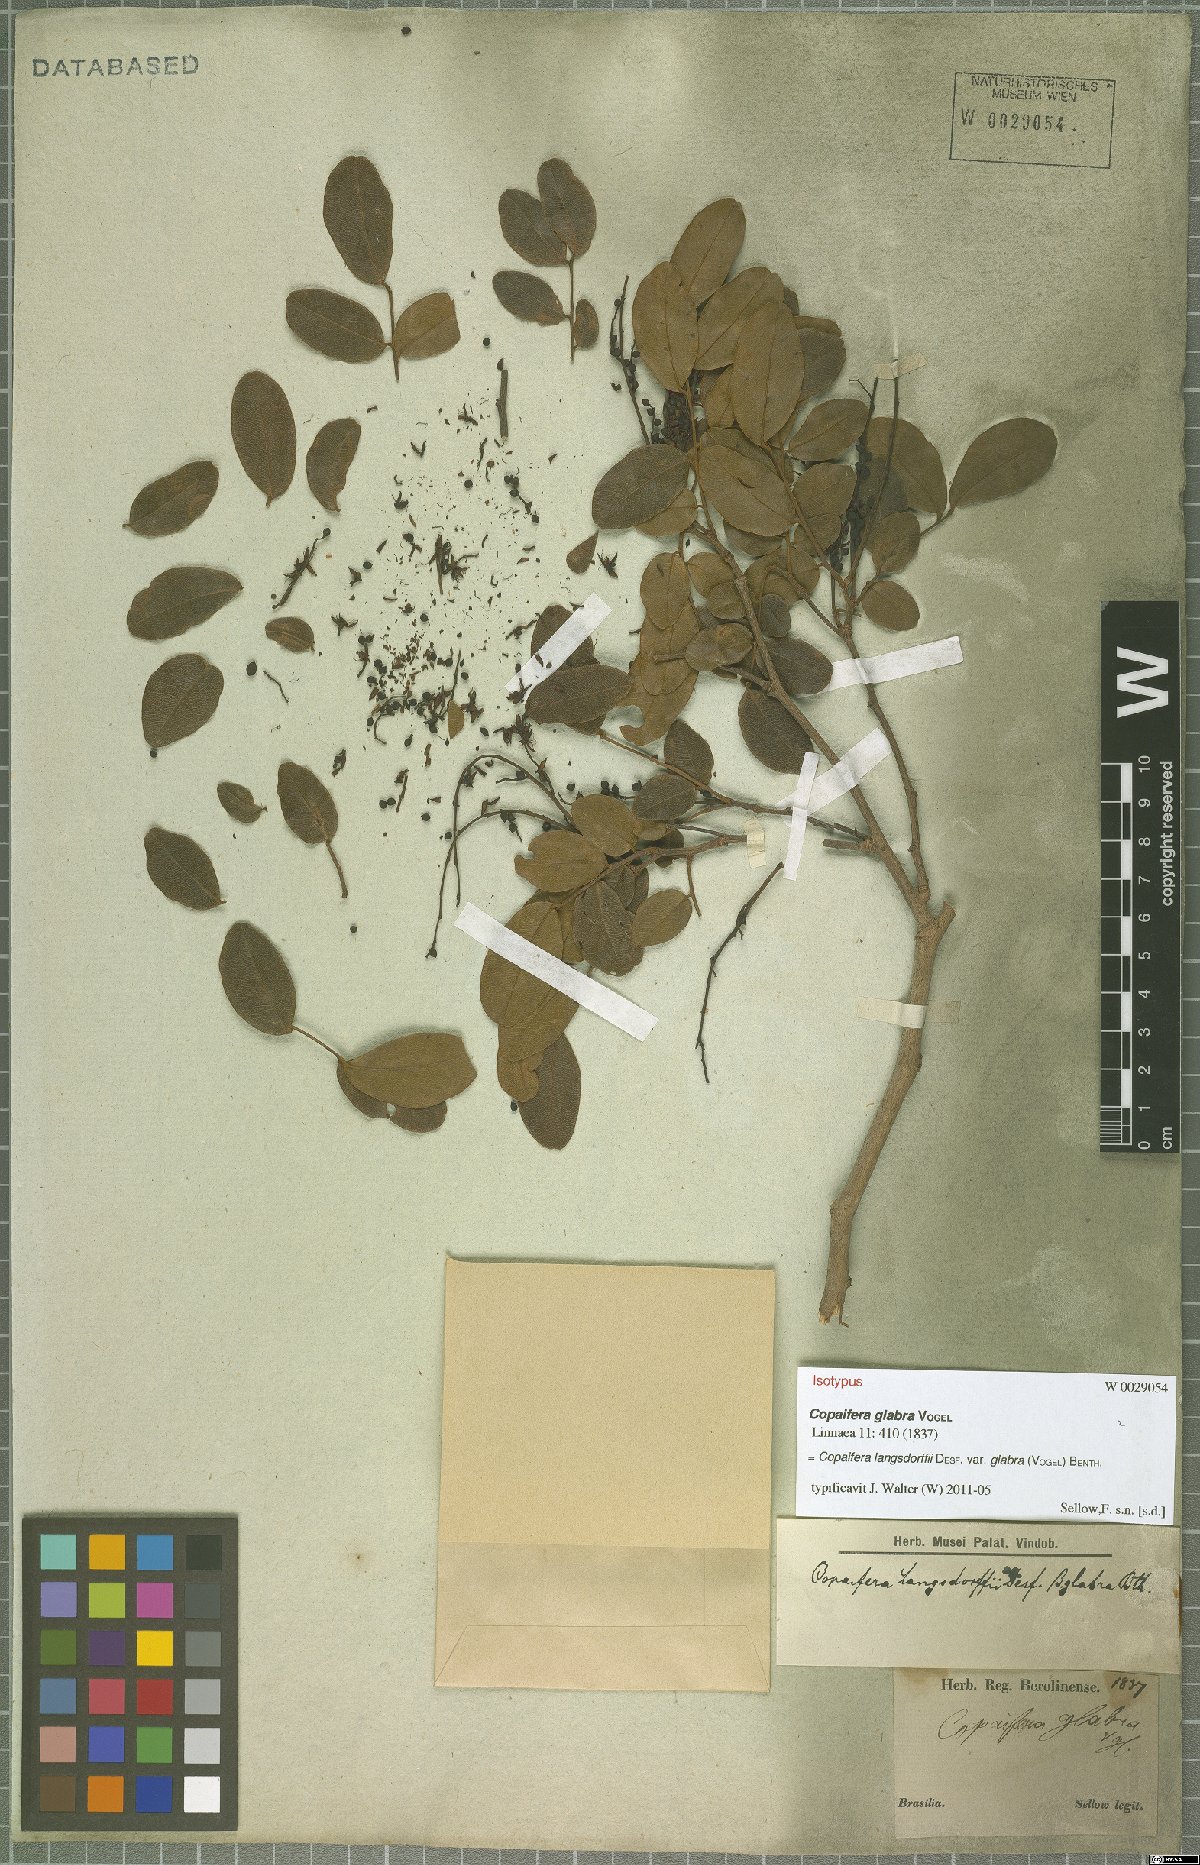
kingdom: Plantae
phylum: Tracheophyta
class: Magnoliopsida
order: Fabales
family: Fabaceae
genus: Copaifera
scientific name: Copaifera langsdorffii
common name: Brazilian diesel tree
